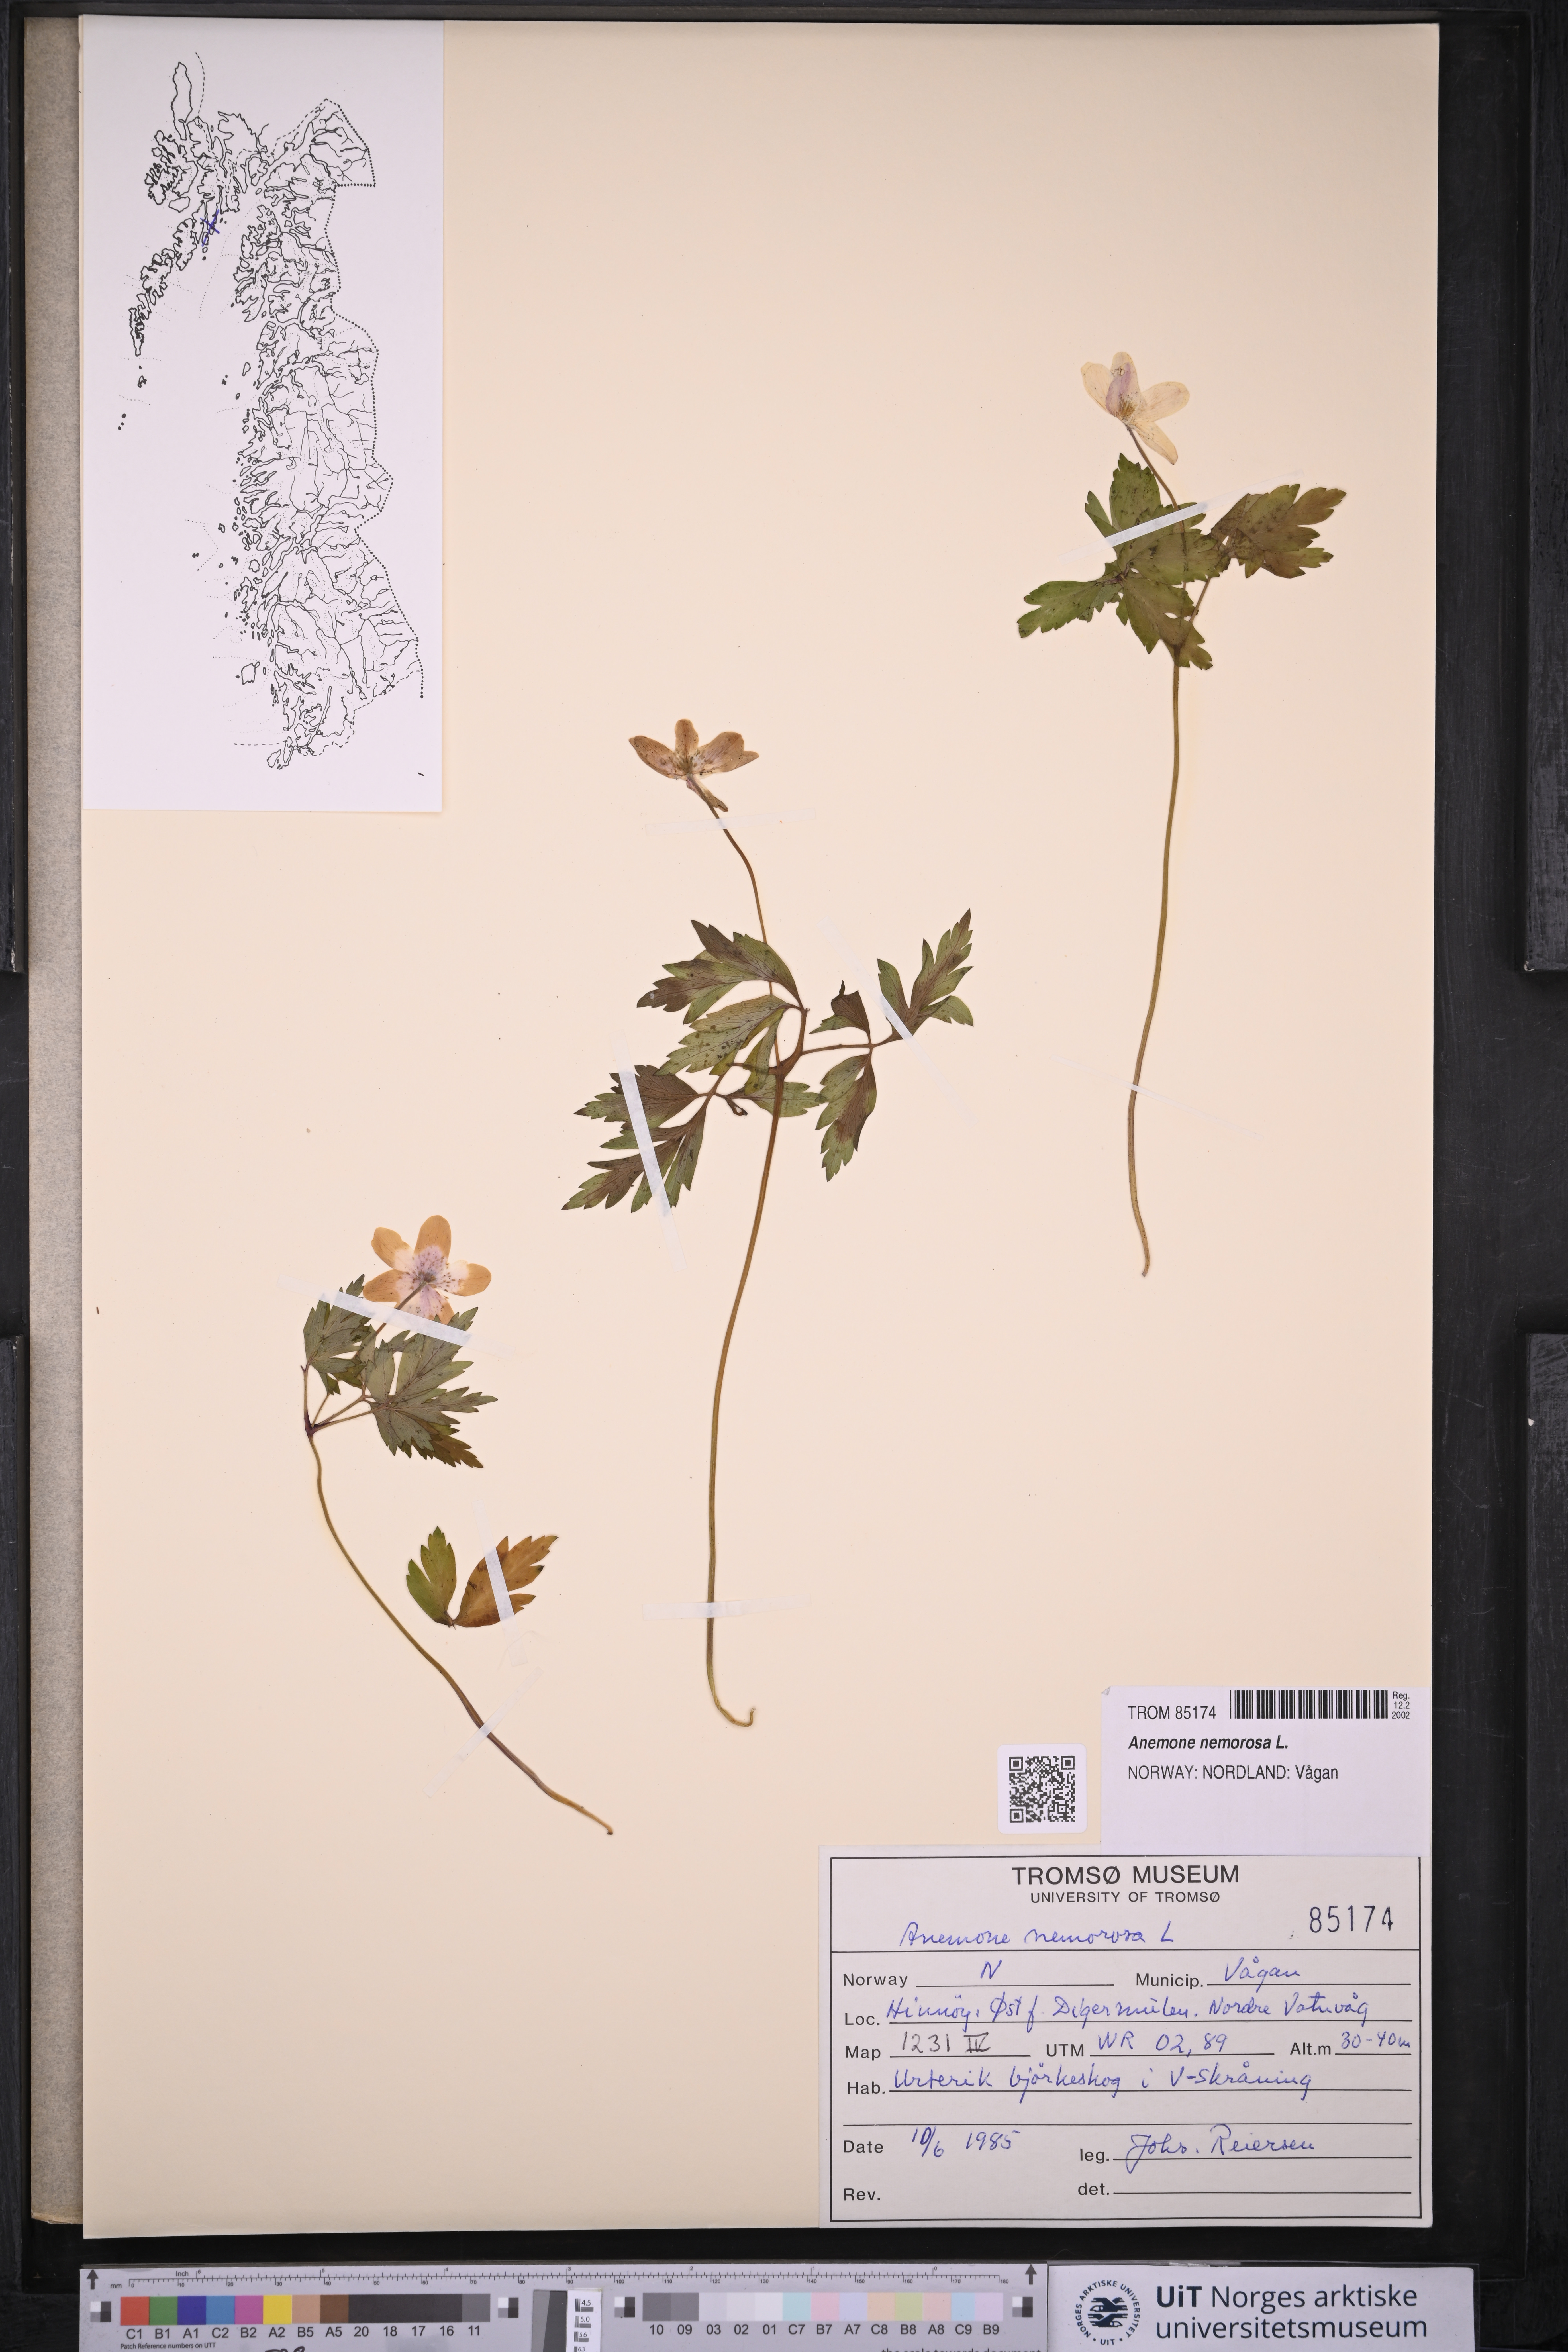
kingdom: Plantae
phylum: Tracheophyta
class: Magnoliopsida
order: Ranunculales
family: Ranunculaceae
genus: Anemone
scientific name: Anemone nemorosa
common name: Wood anemone
